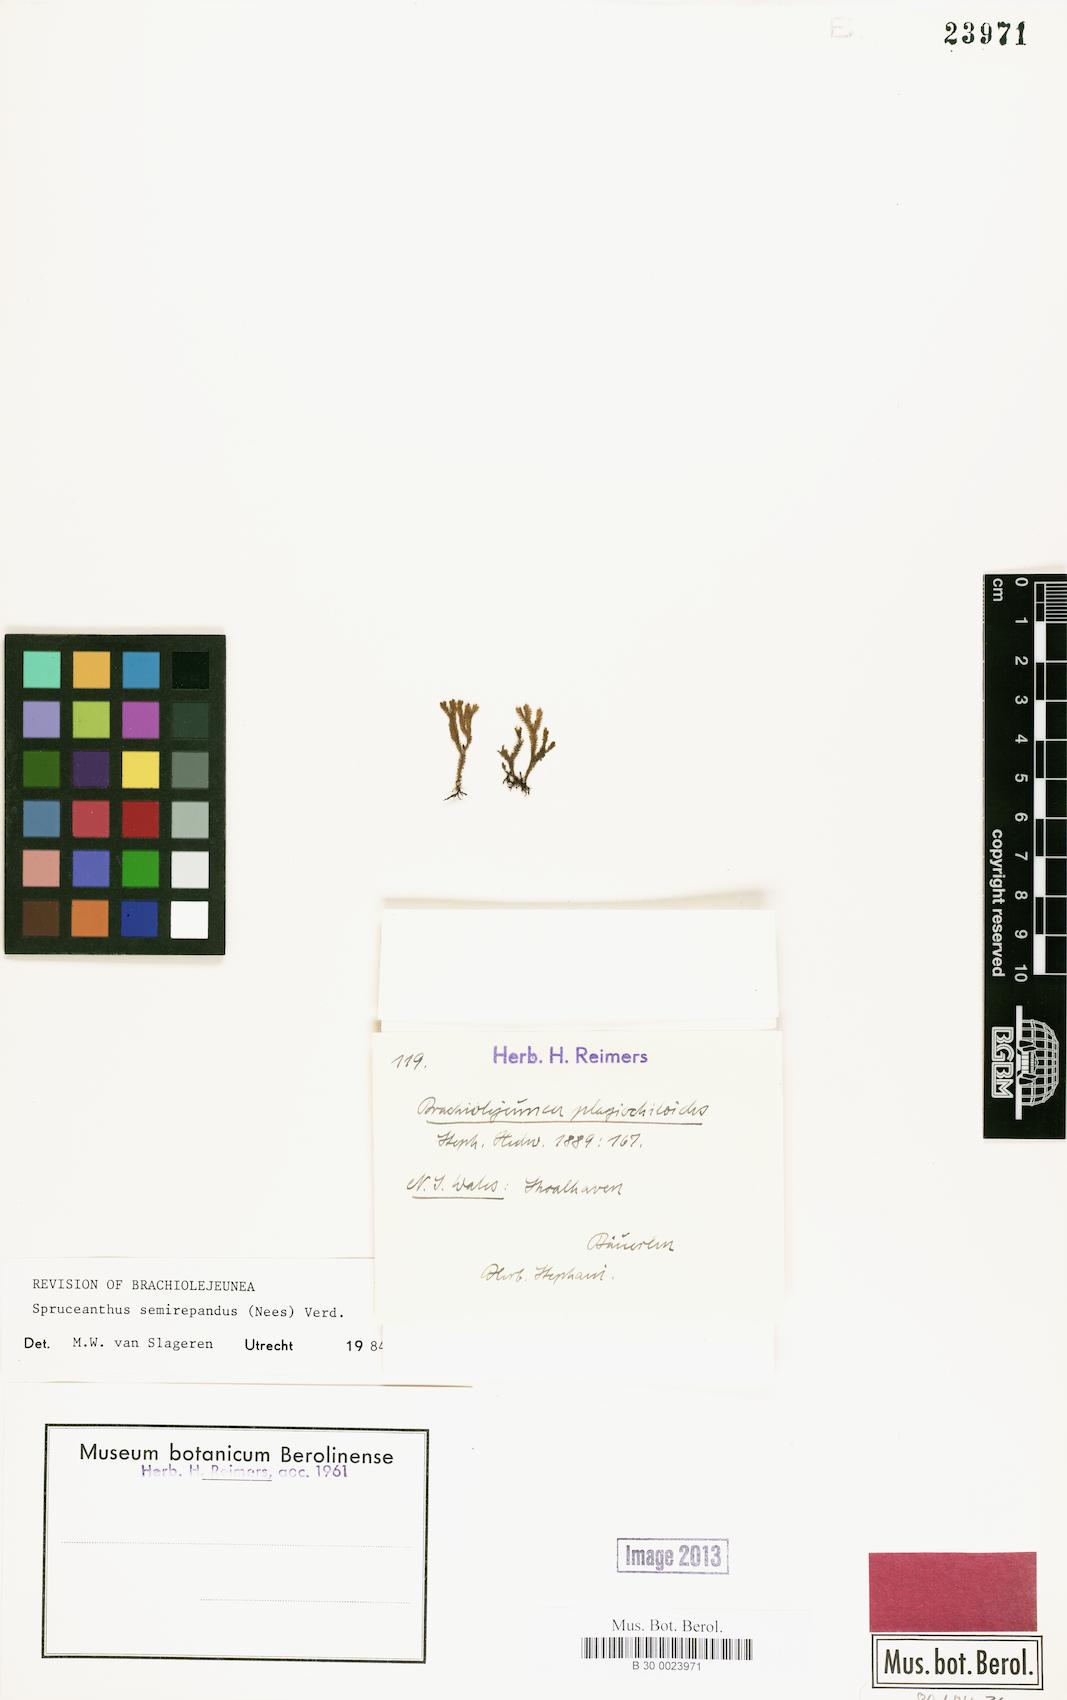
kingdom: Plantae
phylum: Marchantiophyta
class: Jungermanniopsida
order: Porellales
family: Lejeuneaceae
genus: Spruceanthus
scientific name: Spruceanthus semirepandus
